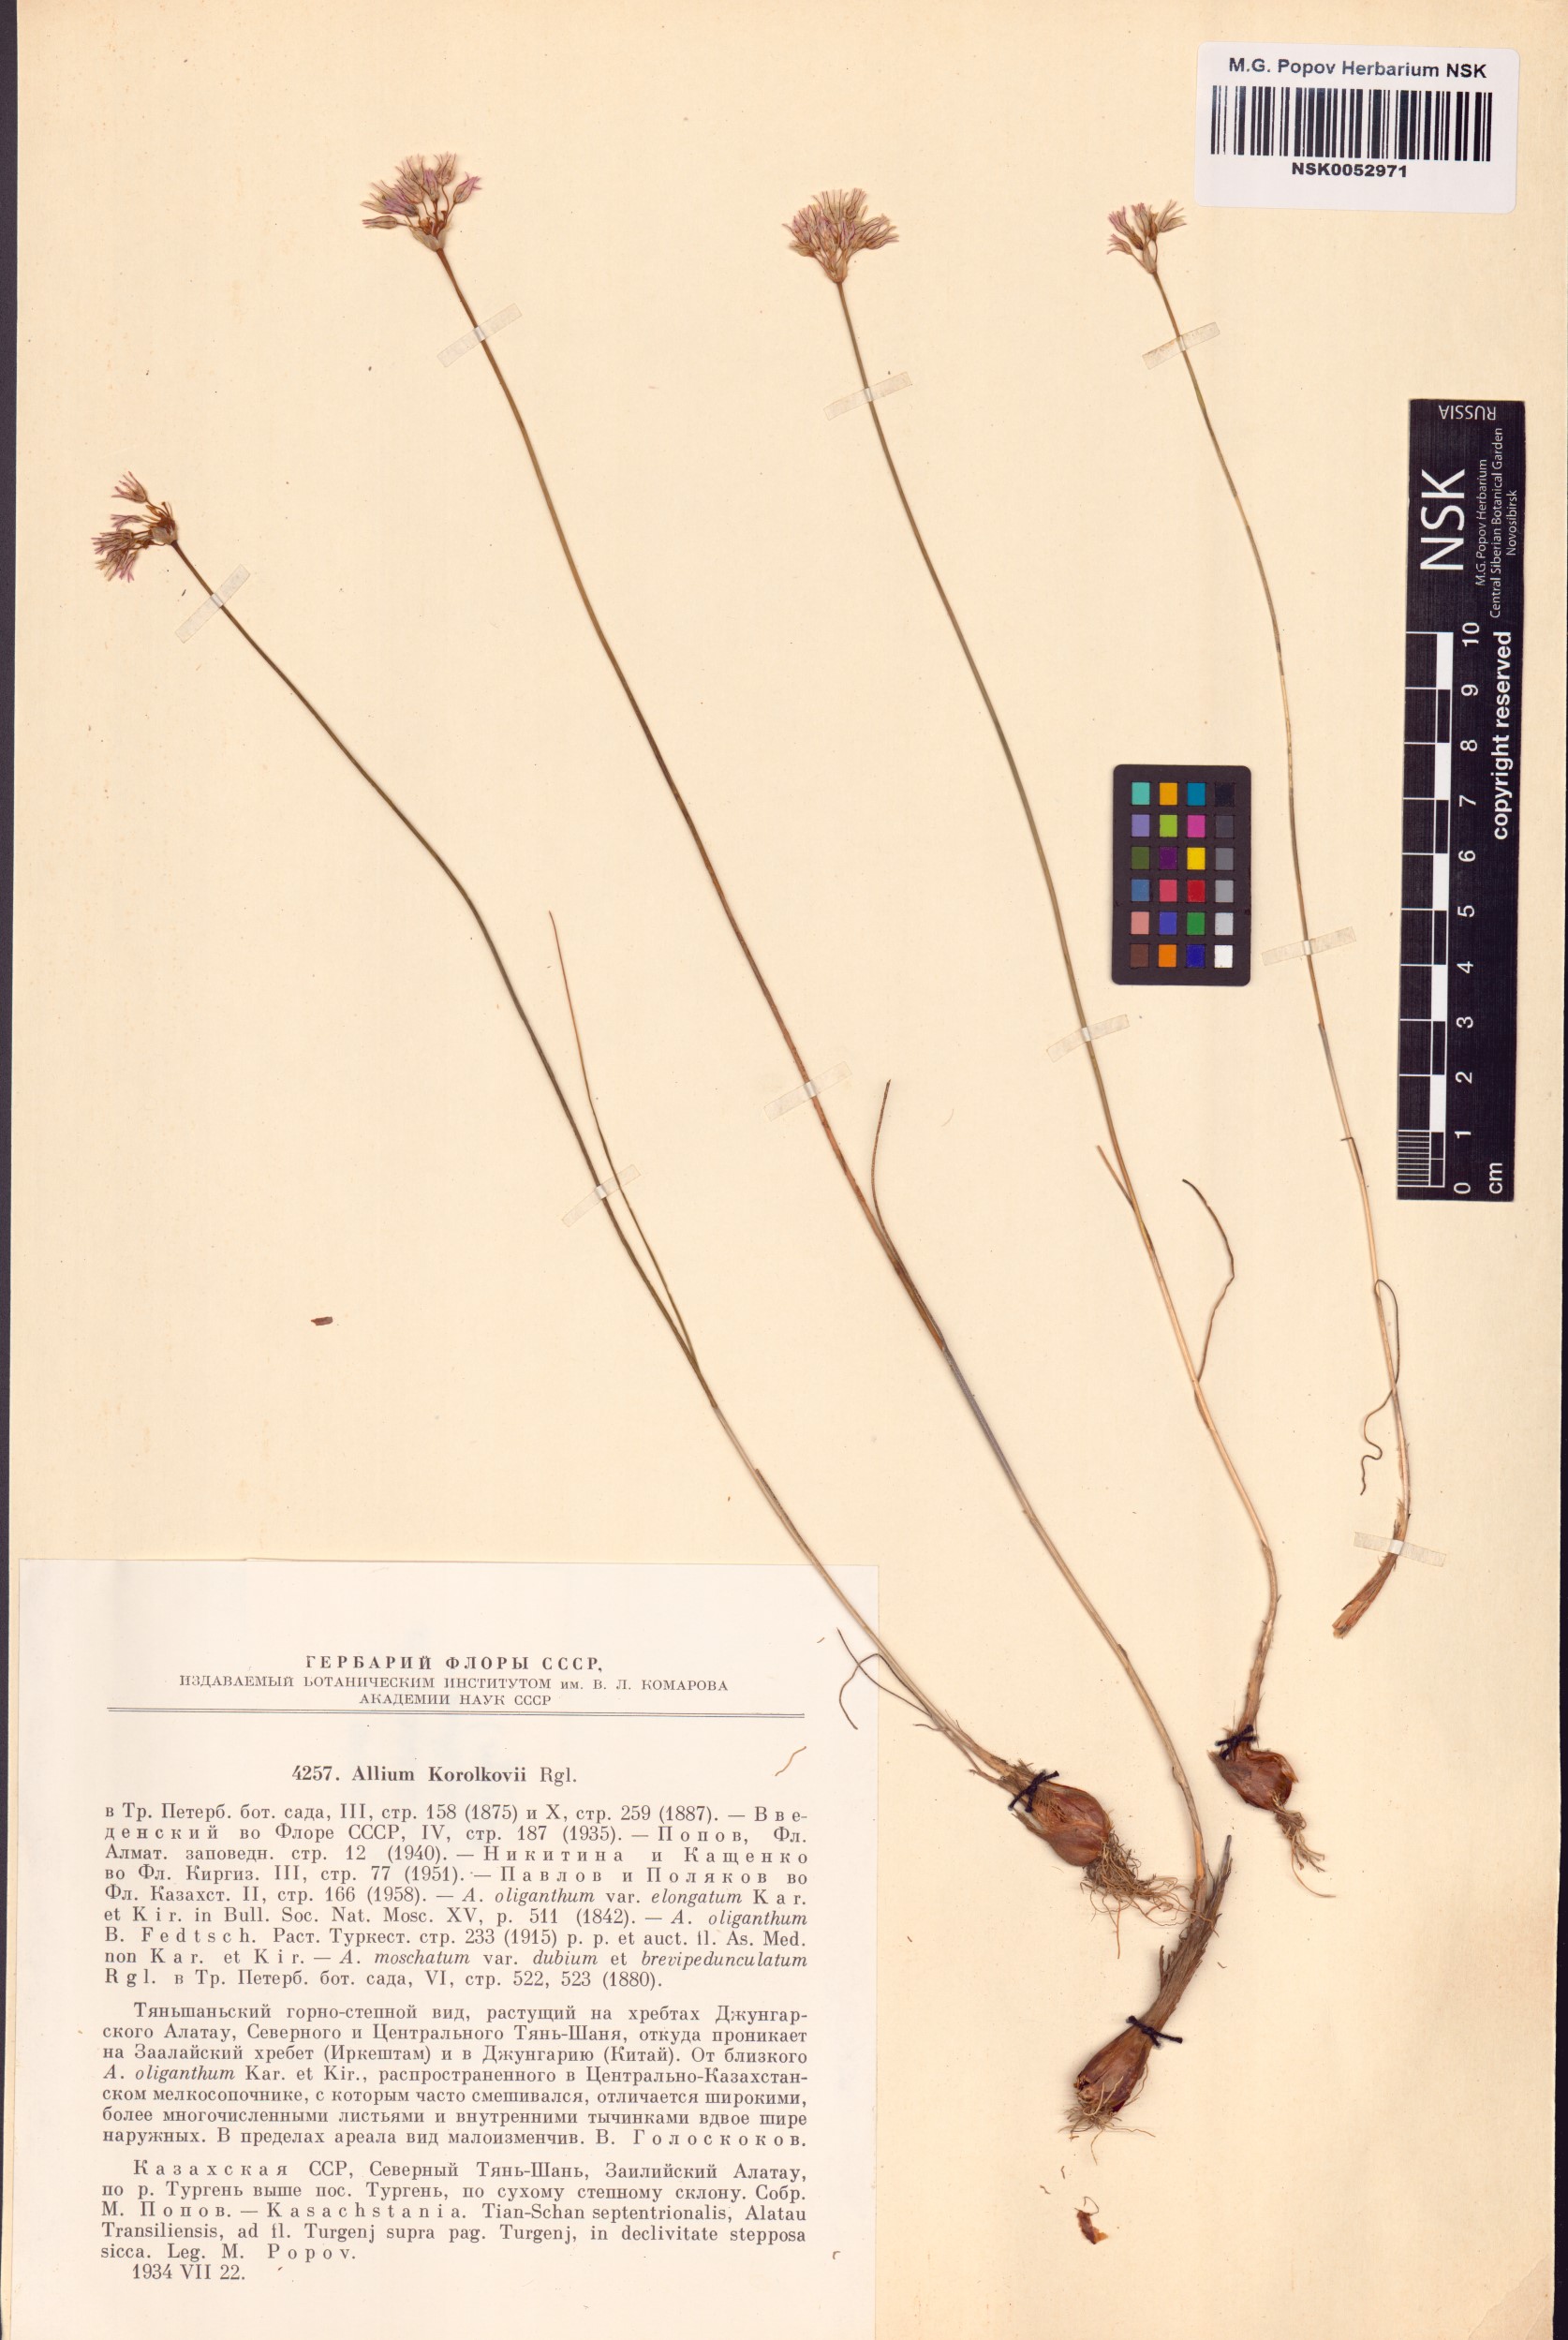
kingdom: Plantae
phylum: Tracheophyta
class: Liliopsida
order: Asparagales
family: Amaryllidaceae
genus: Allium
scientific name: Allium korolkowii
